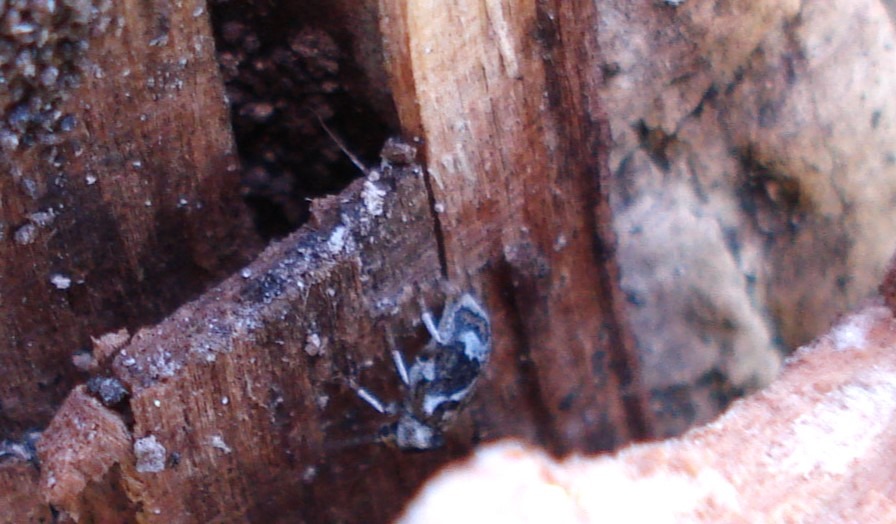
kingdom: Animalia
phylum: Arthropoda
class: Insecta
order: Coleoptera
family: Anobiidae
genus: Ptinomorphus
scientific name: Ptinomorphus imperialis
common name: Hvidbroget borebille
